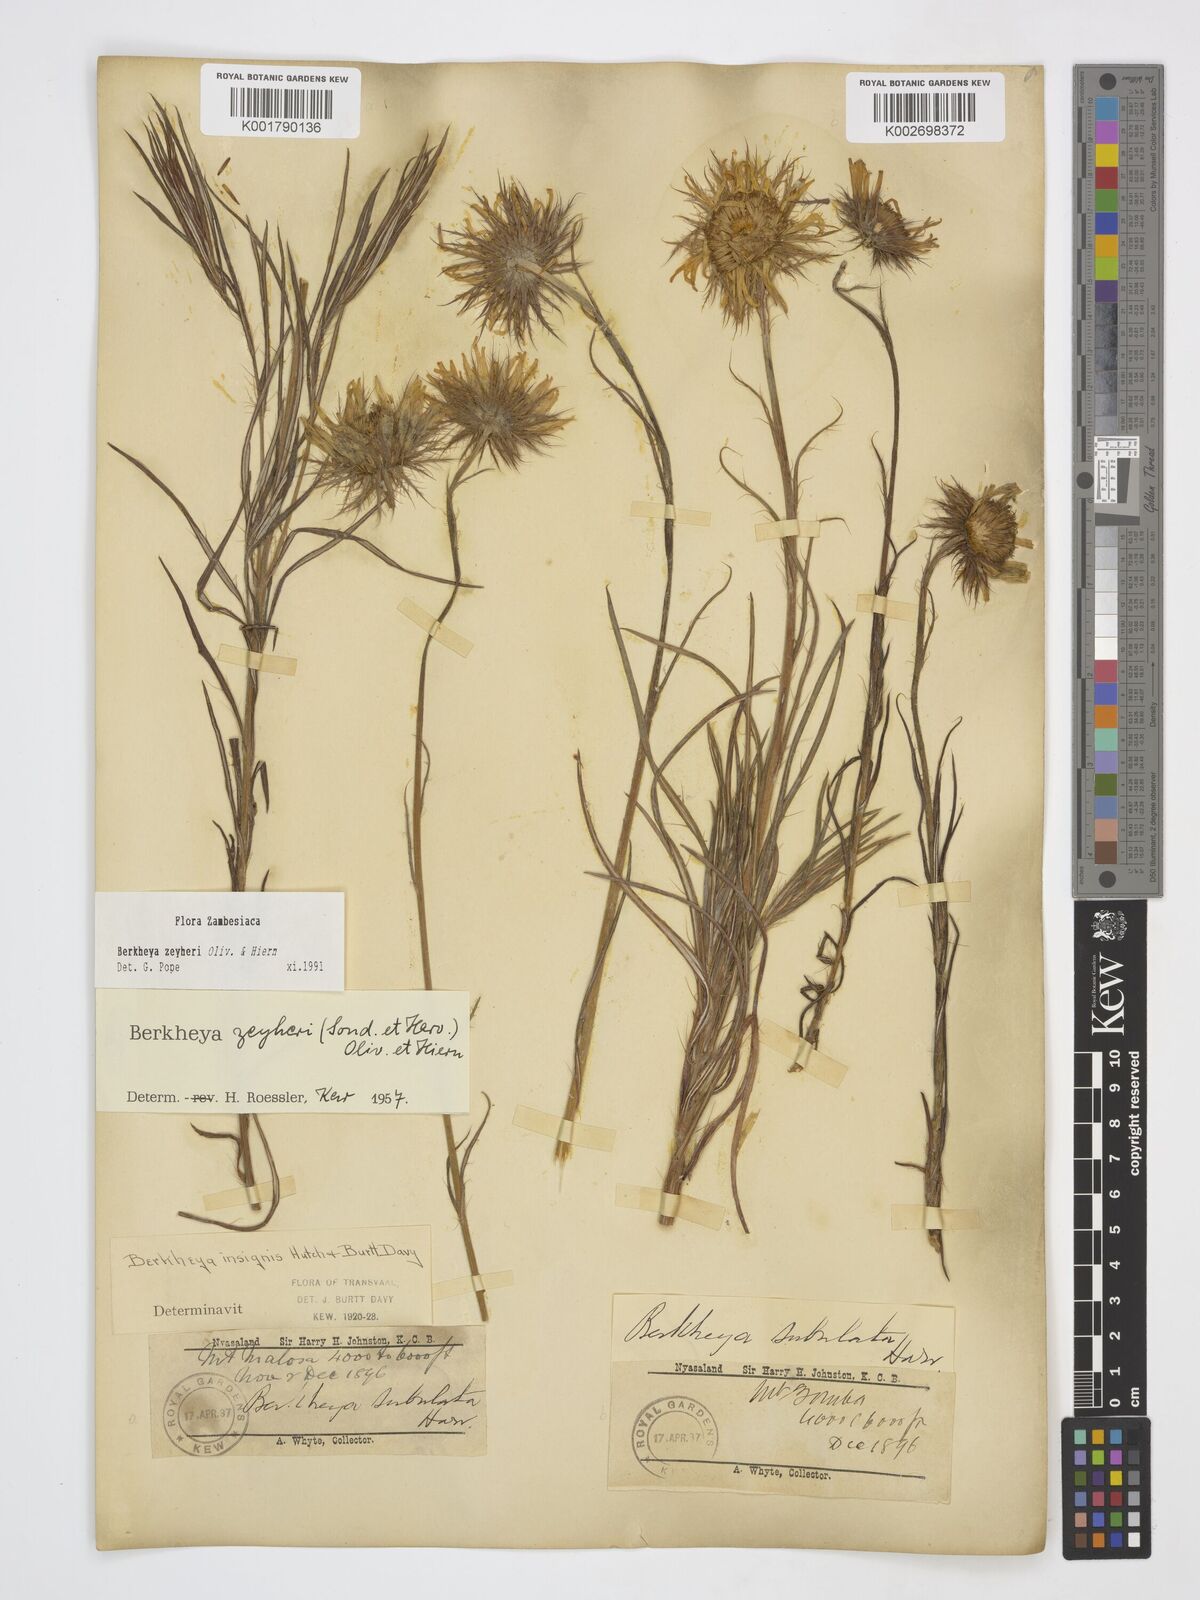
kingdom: Plantae
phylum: Tracheophyta
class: Magnoliopsida
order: Asterales
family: Asteraceae
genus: Berkheya
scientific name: Berkheya zeyheri
